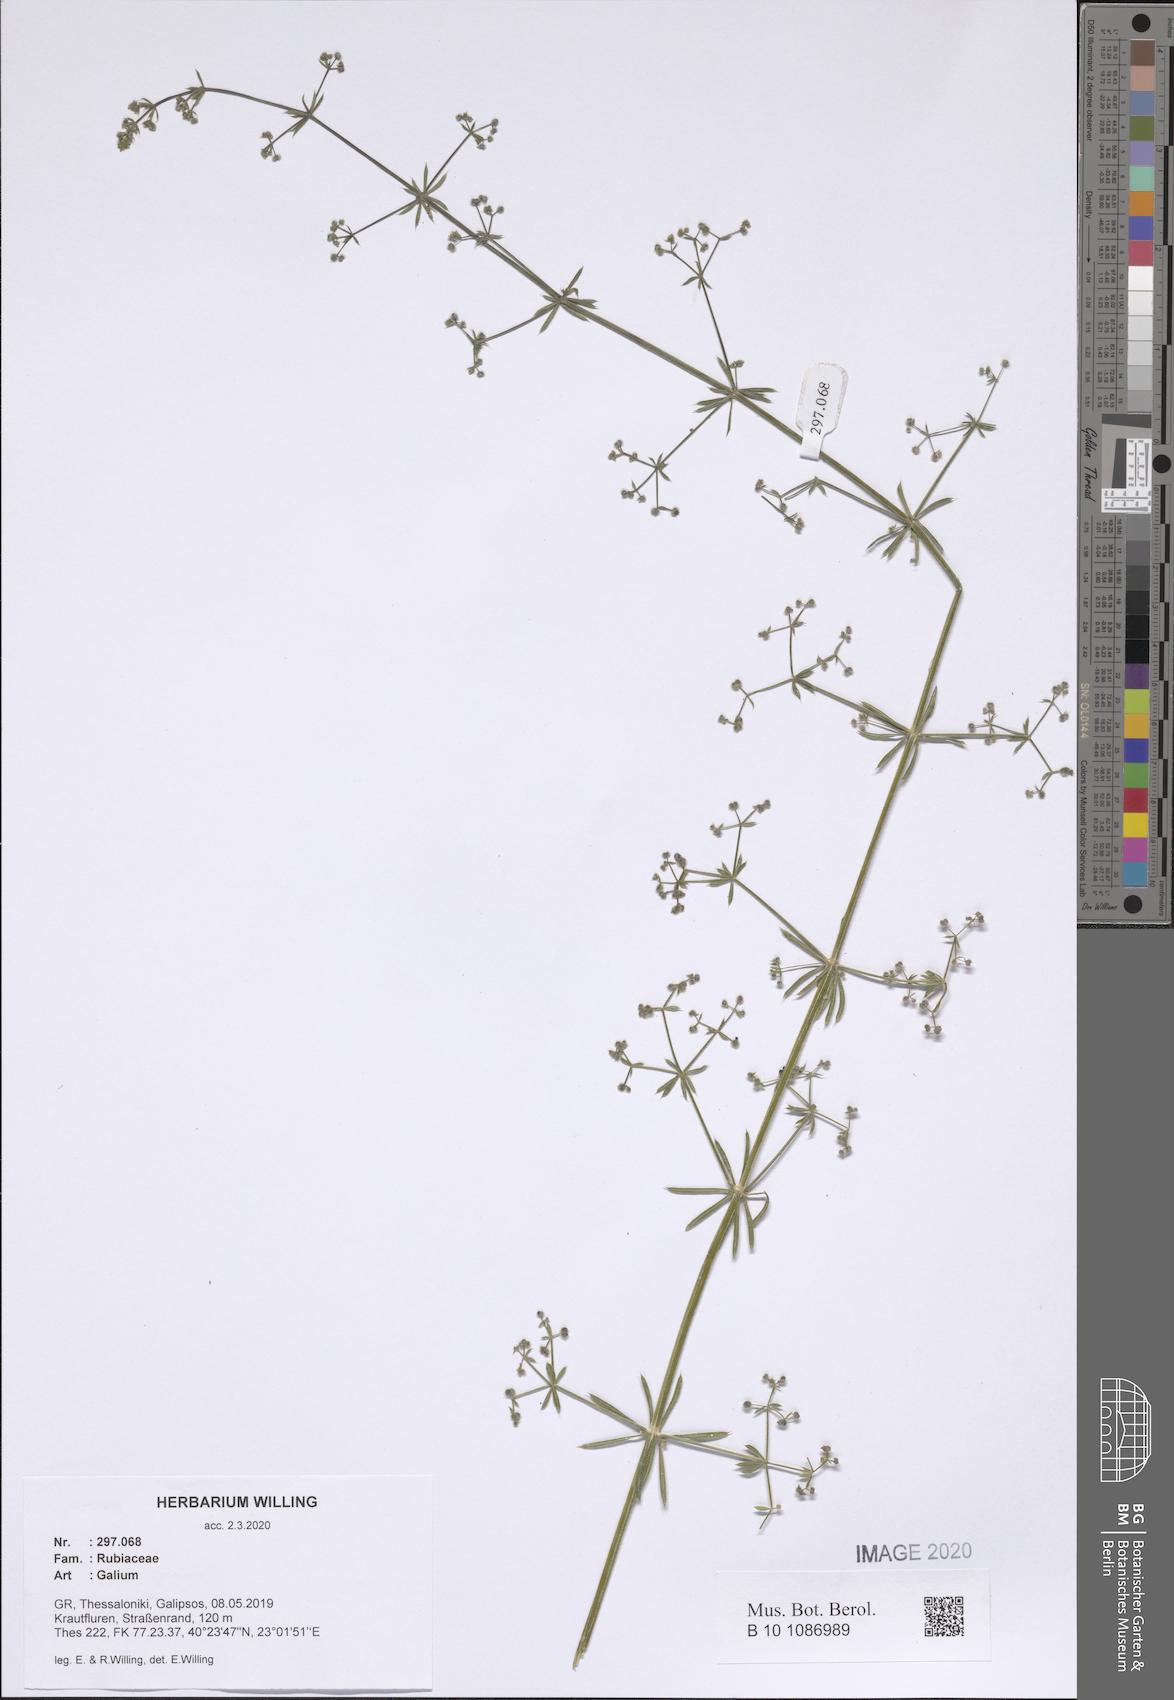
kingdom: Plantae
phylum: Tracheophyta
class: Magnoliopsida
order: Gentianales
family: Rubiaceae
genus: Galium
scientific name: Galium
